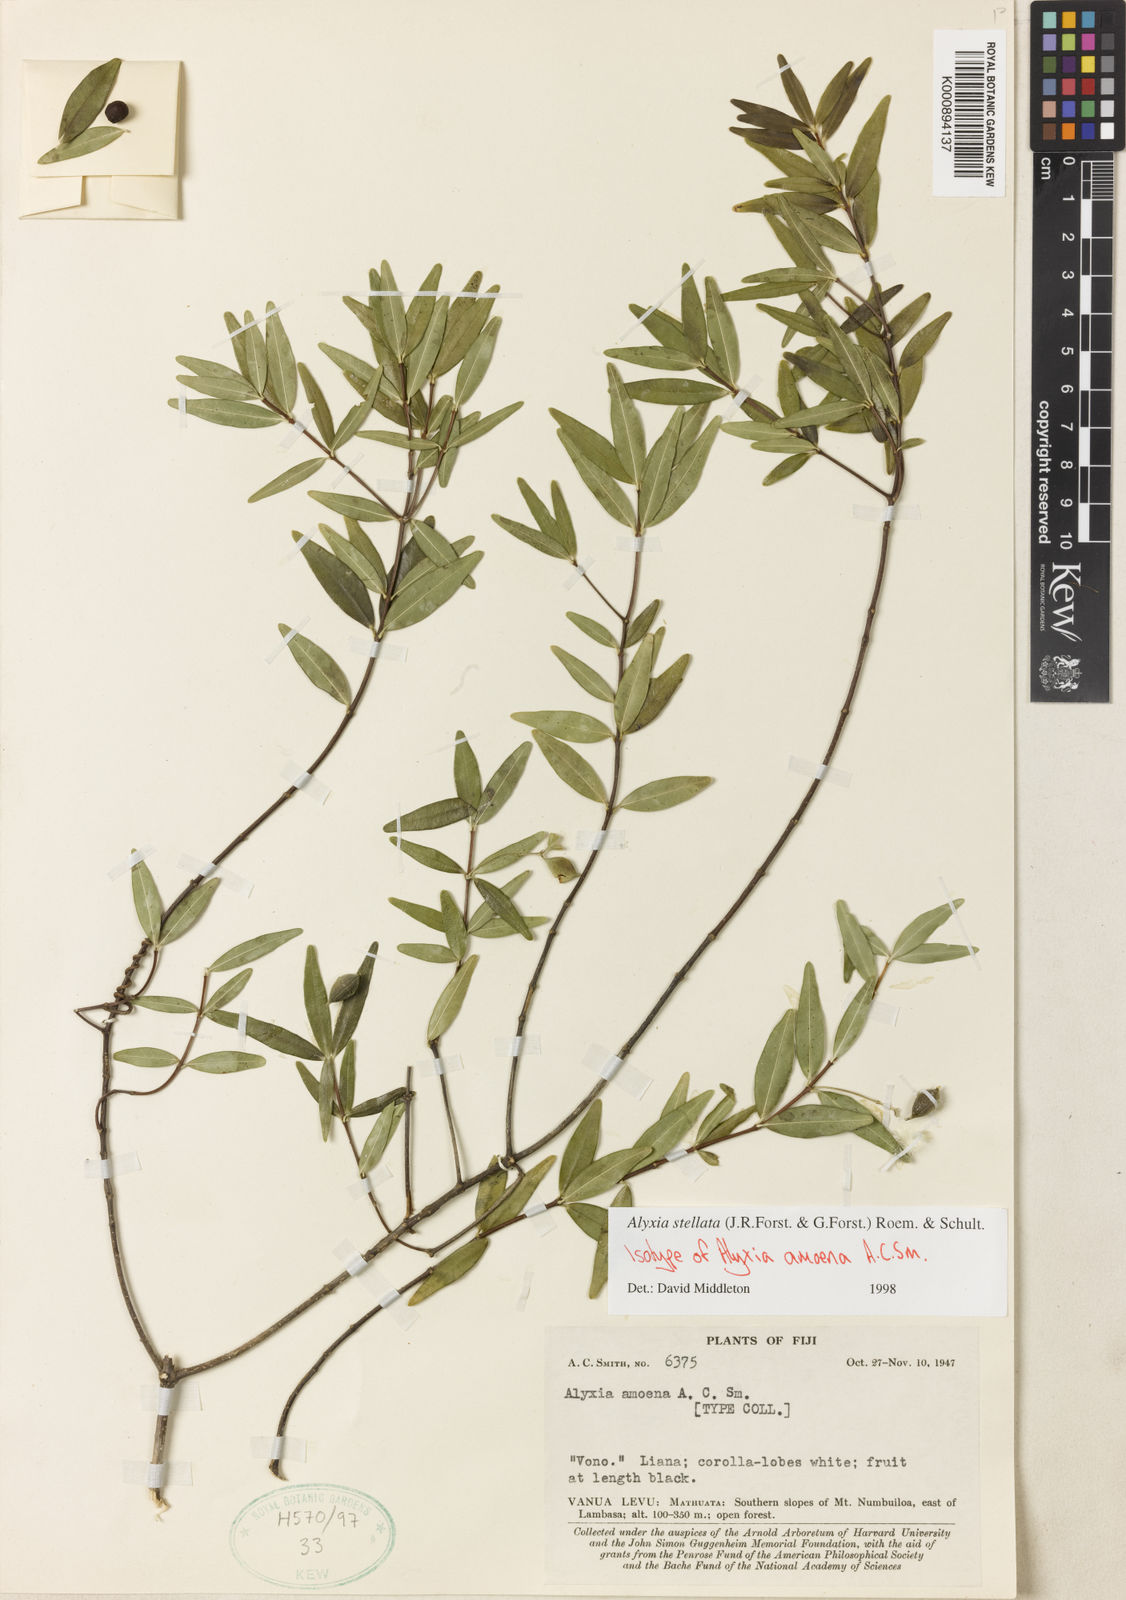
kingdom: Plantae
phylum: Tracheophyta
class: Magnoliopsida
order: Gentianales
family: Apocynaceae
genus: Alyxia
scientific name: Alyxia stellata
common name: Maile
